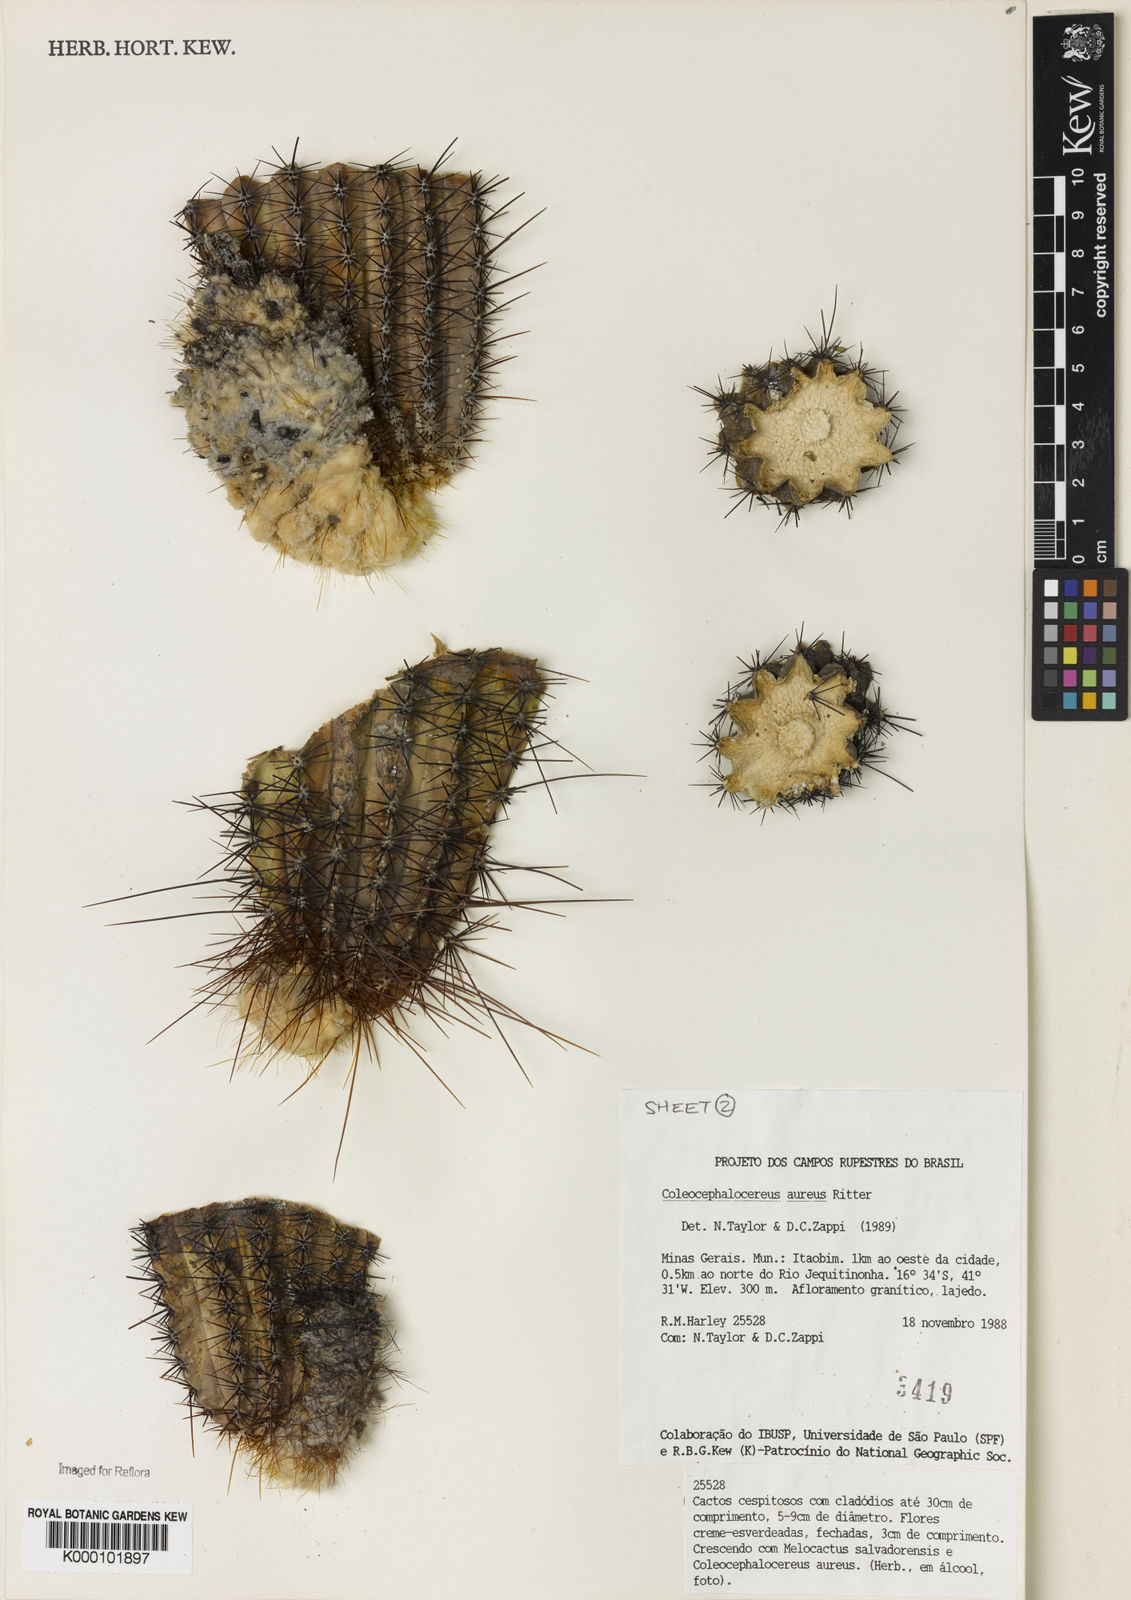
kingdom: Plantae
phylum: Tracheophyta
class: Magnoliopsida
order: Caryophyllales
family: Cactaceae
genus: Coleocephalocereus
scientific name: Coleocephalocereus aureus
